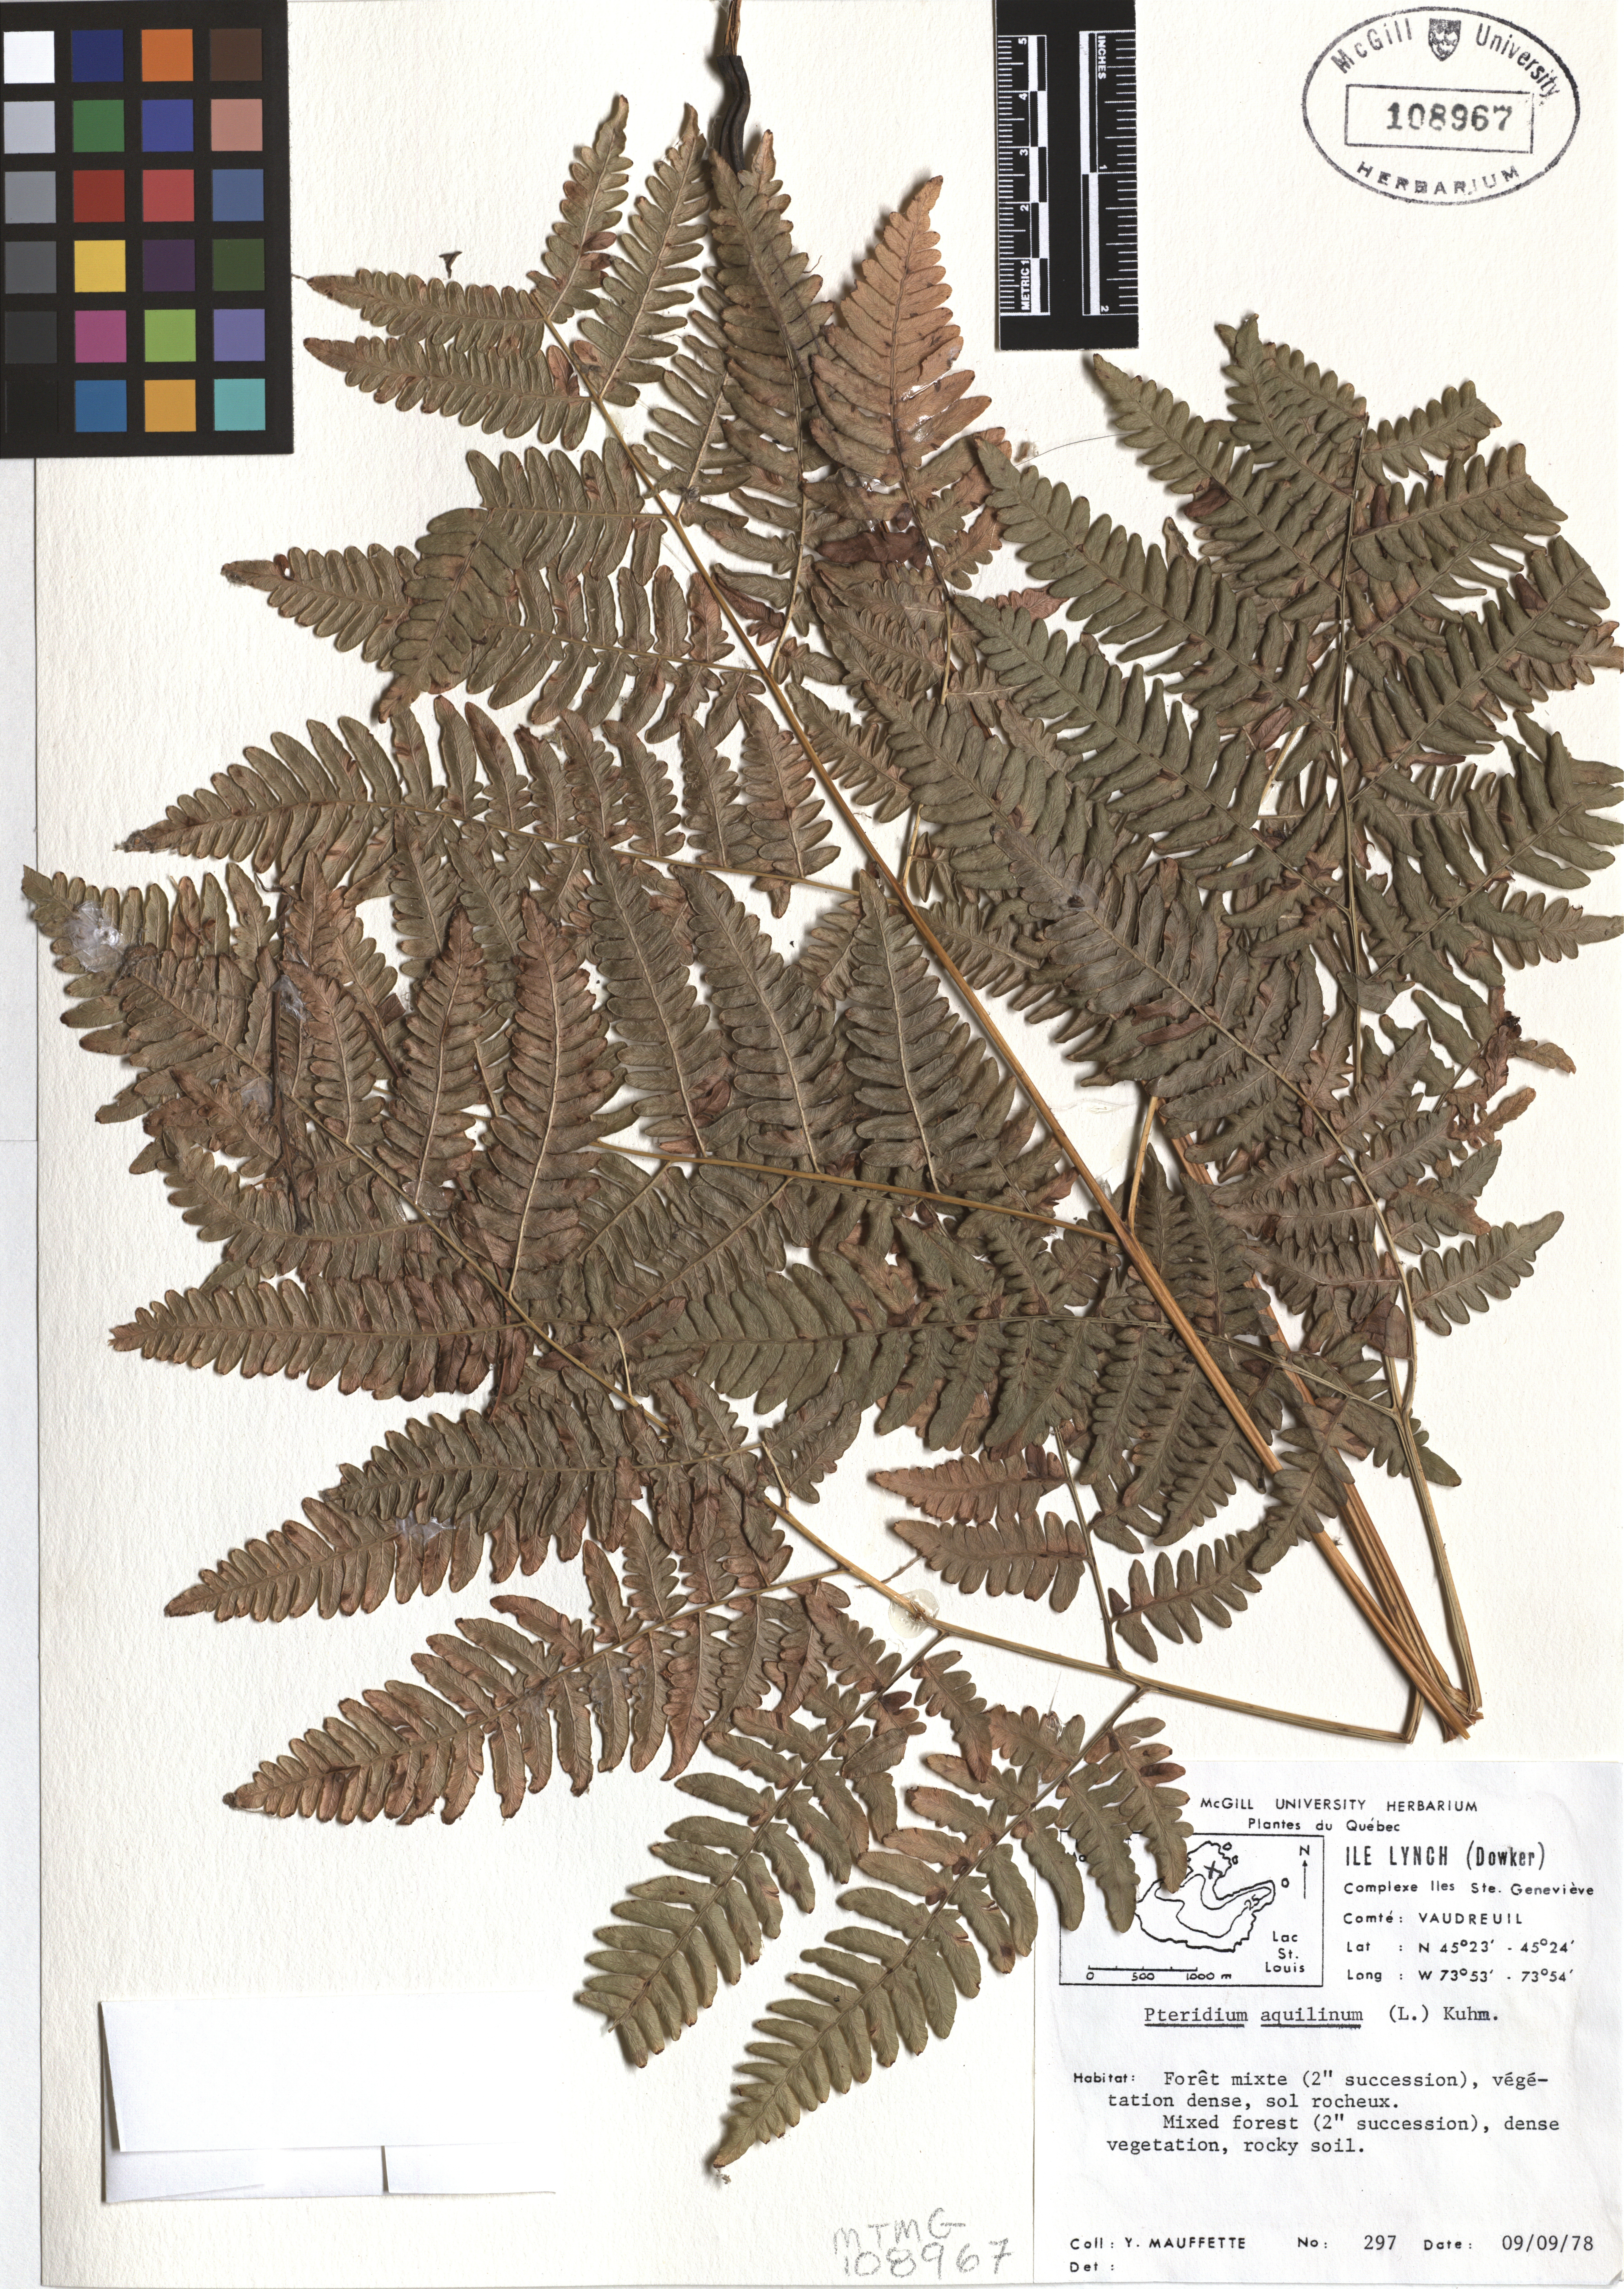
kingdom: Plantae
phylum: Tracheophyta
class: Polypodiopsida
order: Polypodiales
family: Dennstaedtiaceae
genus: Pteridium
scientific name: Pteridium aquilinum
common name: Bracken
